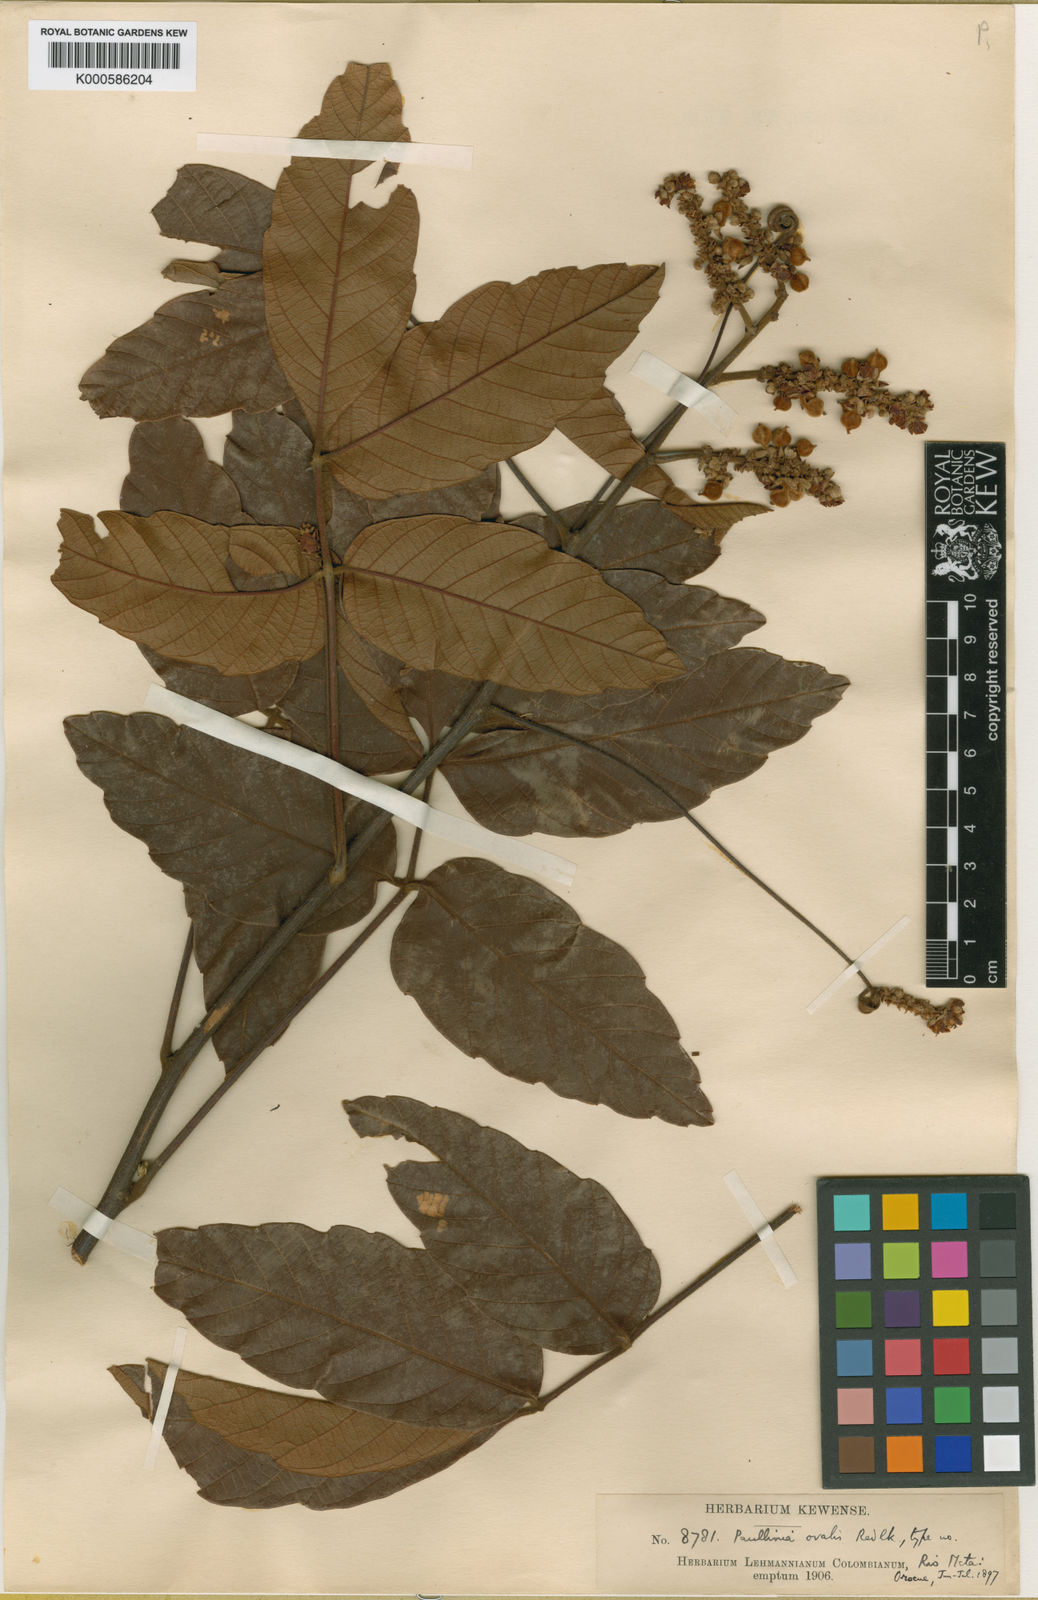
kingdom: Plantae
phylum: Tracheophyta
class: Magnoliopsida
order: Sapindales
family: Sapindaceae
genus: Paullinia
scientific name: Paullinia rugosa
